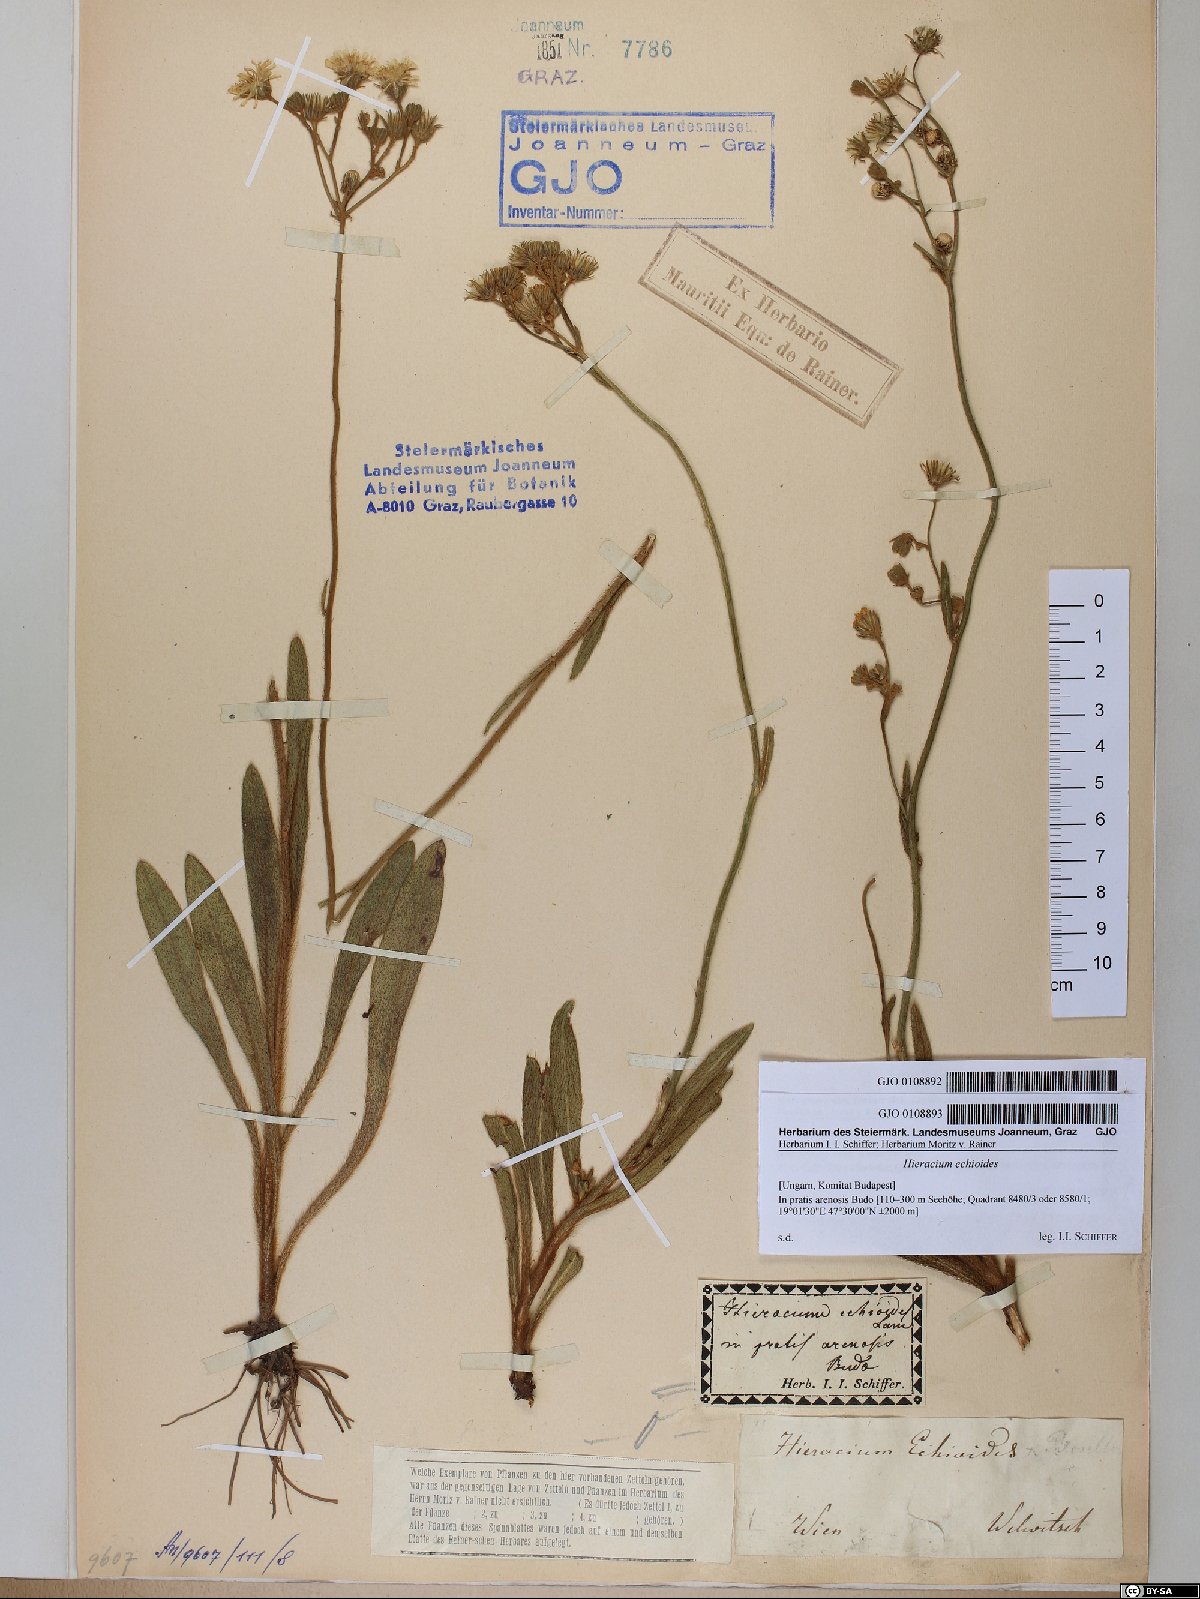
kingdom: Plantae
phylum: Tracheophyta
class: Magnoliopsida
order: Asterales
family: Asteraceae
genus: Pilosella
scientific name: Pilosella echioides
